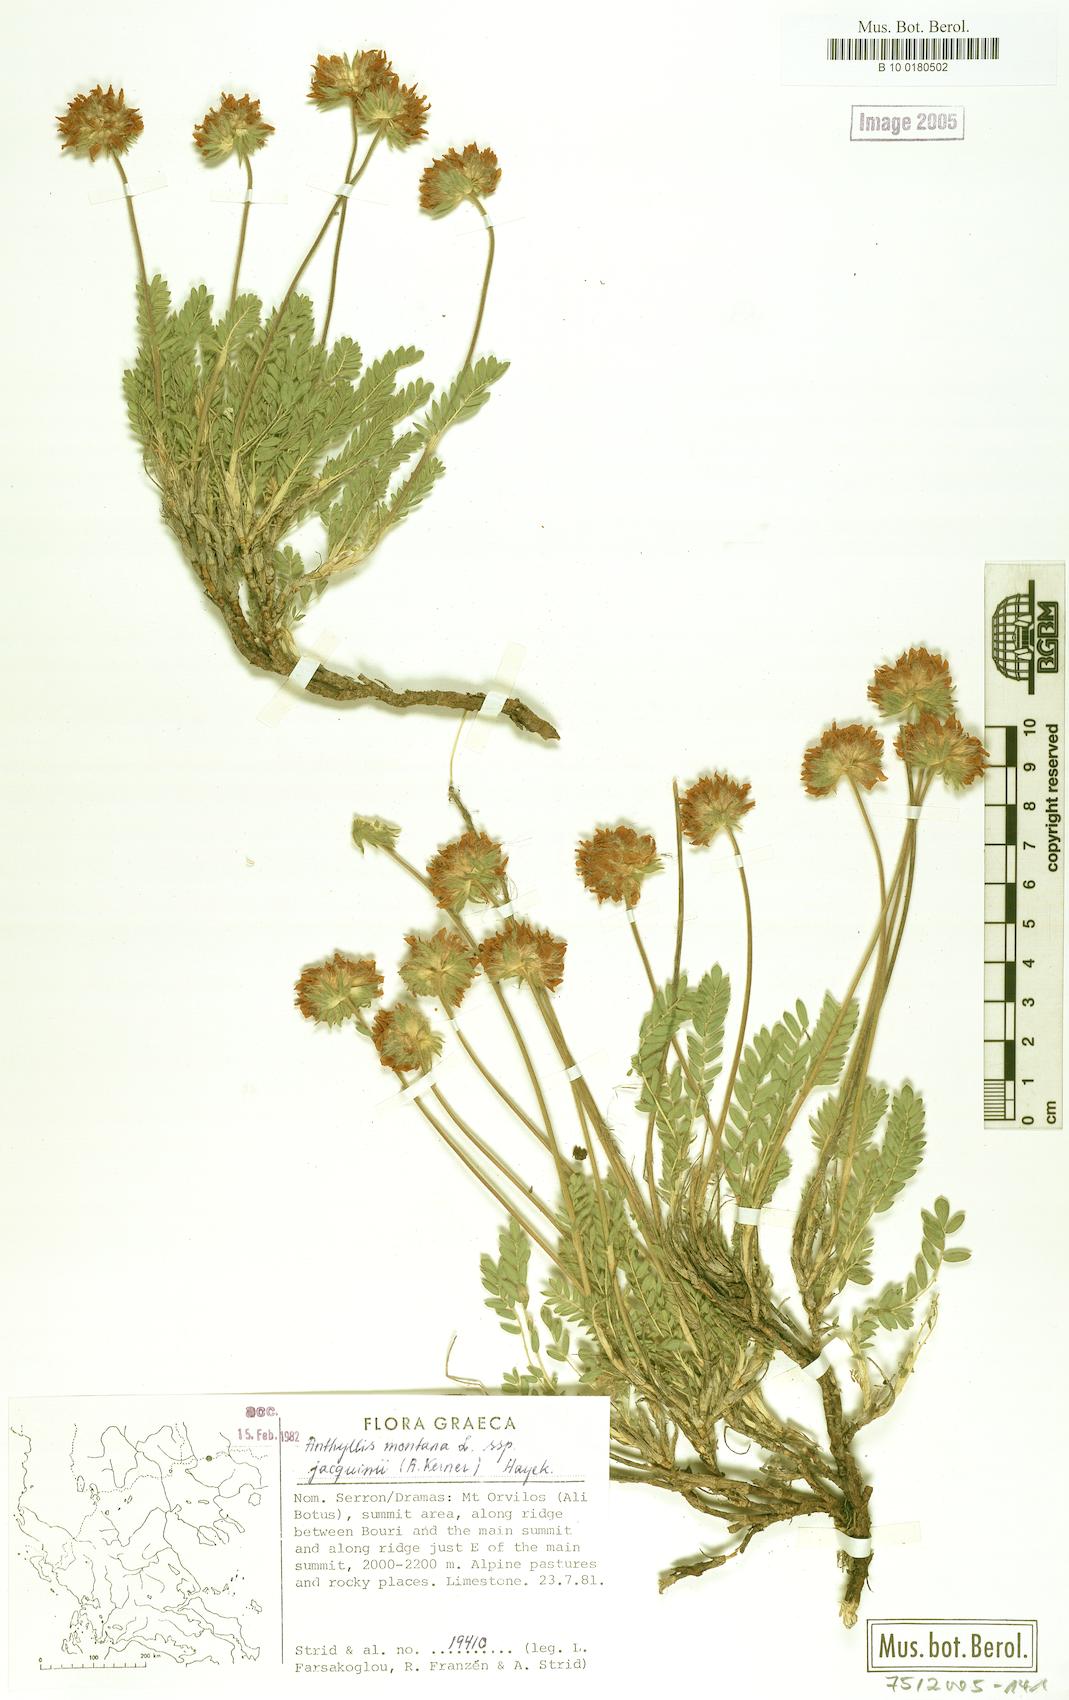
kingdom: Plantae
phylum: Tracheophyta
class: Magnoliopsida
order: Fabales
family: Fabaceae
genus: Anthyllis
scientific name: Anthyllis montana
